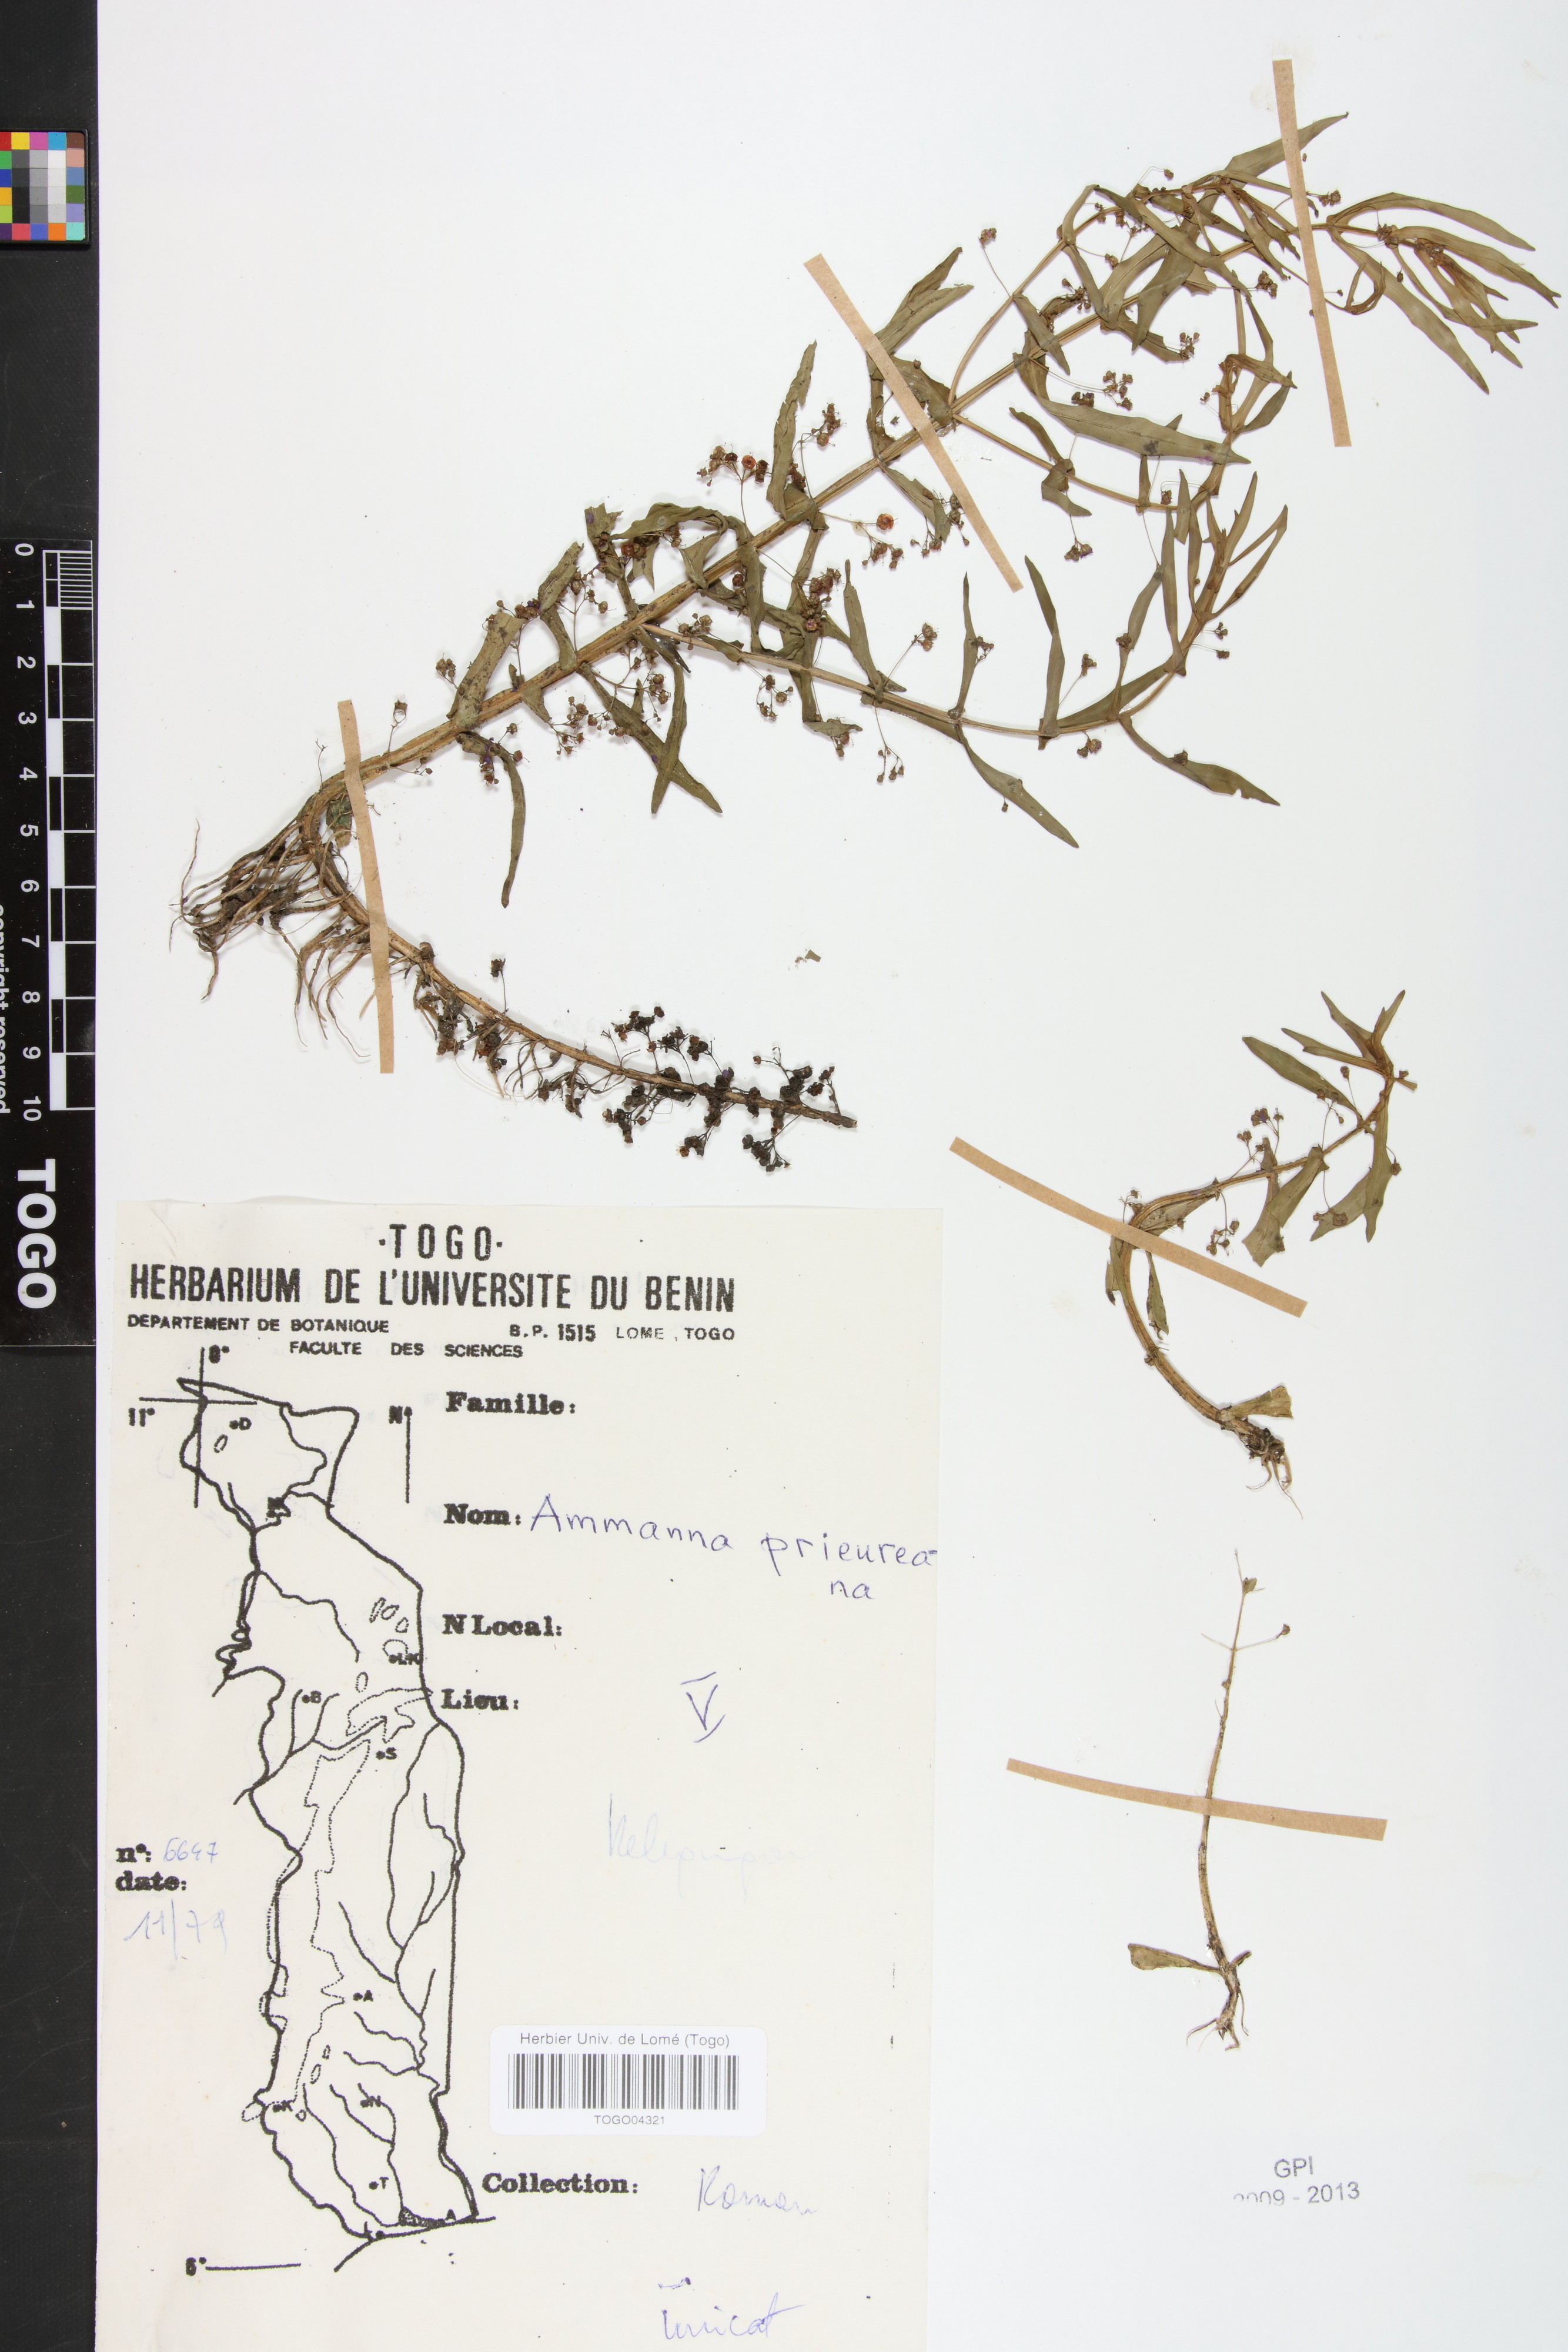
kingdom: Plantae
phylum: Tracheophyta
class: Magnoliopsida
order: Myrtales
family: Lythraceae
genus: Ammannia
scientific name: Ammannia prieureana
